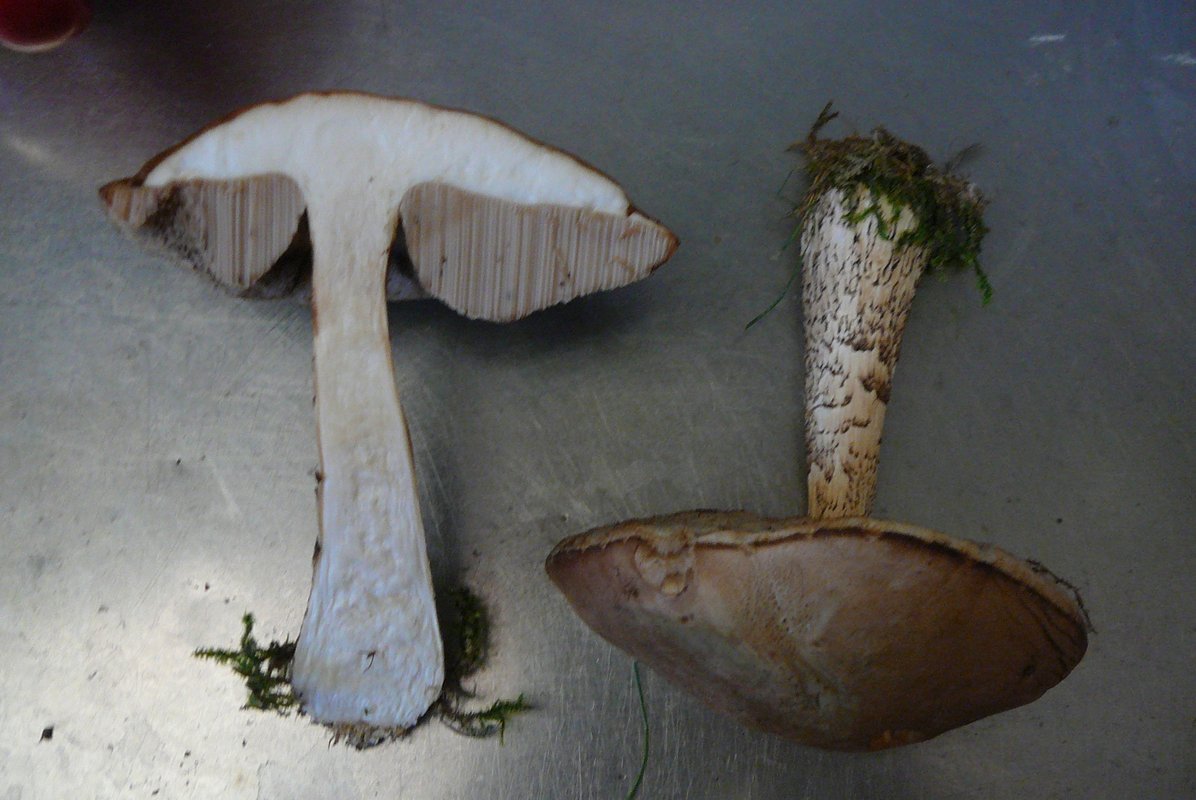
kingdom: Fungi
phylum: Basidiomycota
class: Agaricomycetes
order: Boletales
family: Boletaceae
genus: Leccinum
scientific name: Leccinum scabrum
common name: brun skælrørhat
